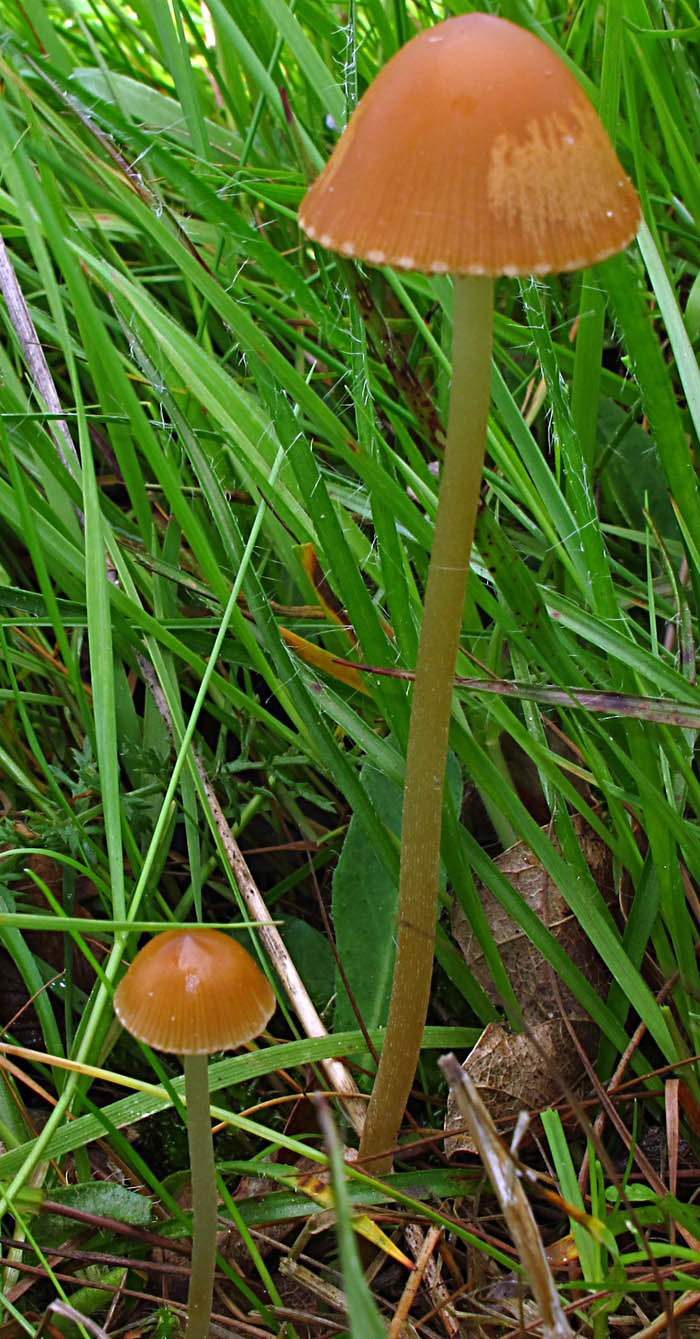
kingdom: Fungi
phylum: Basidiomycota
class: Agaricomycetes
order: Agaricales
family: Bolbitiaceae
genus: Conocybe
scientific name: Conocybe alboradicans
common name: rod-keglehat
